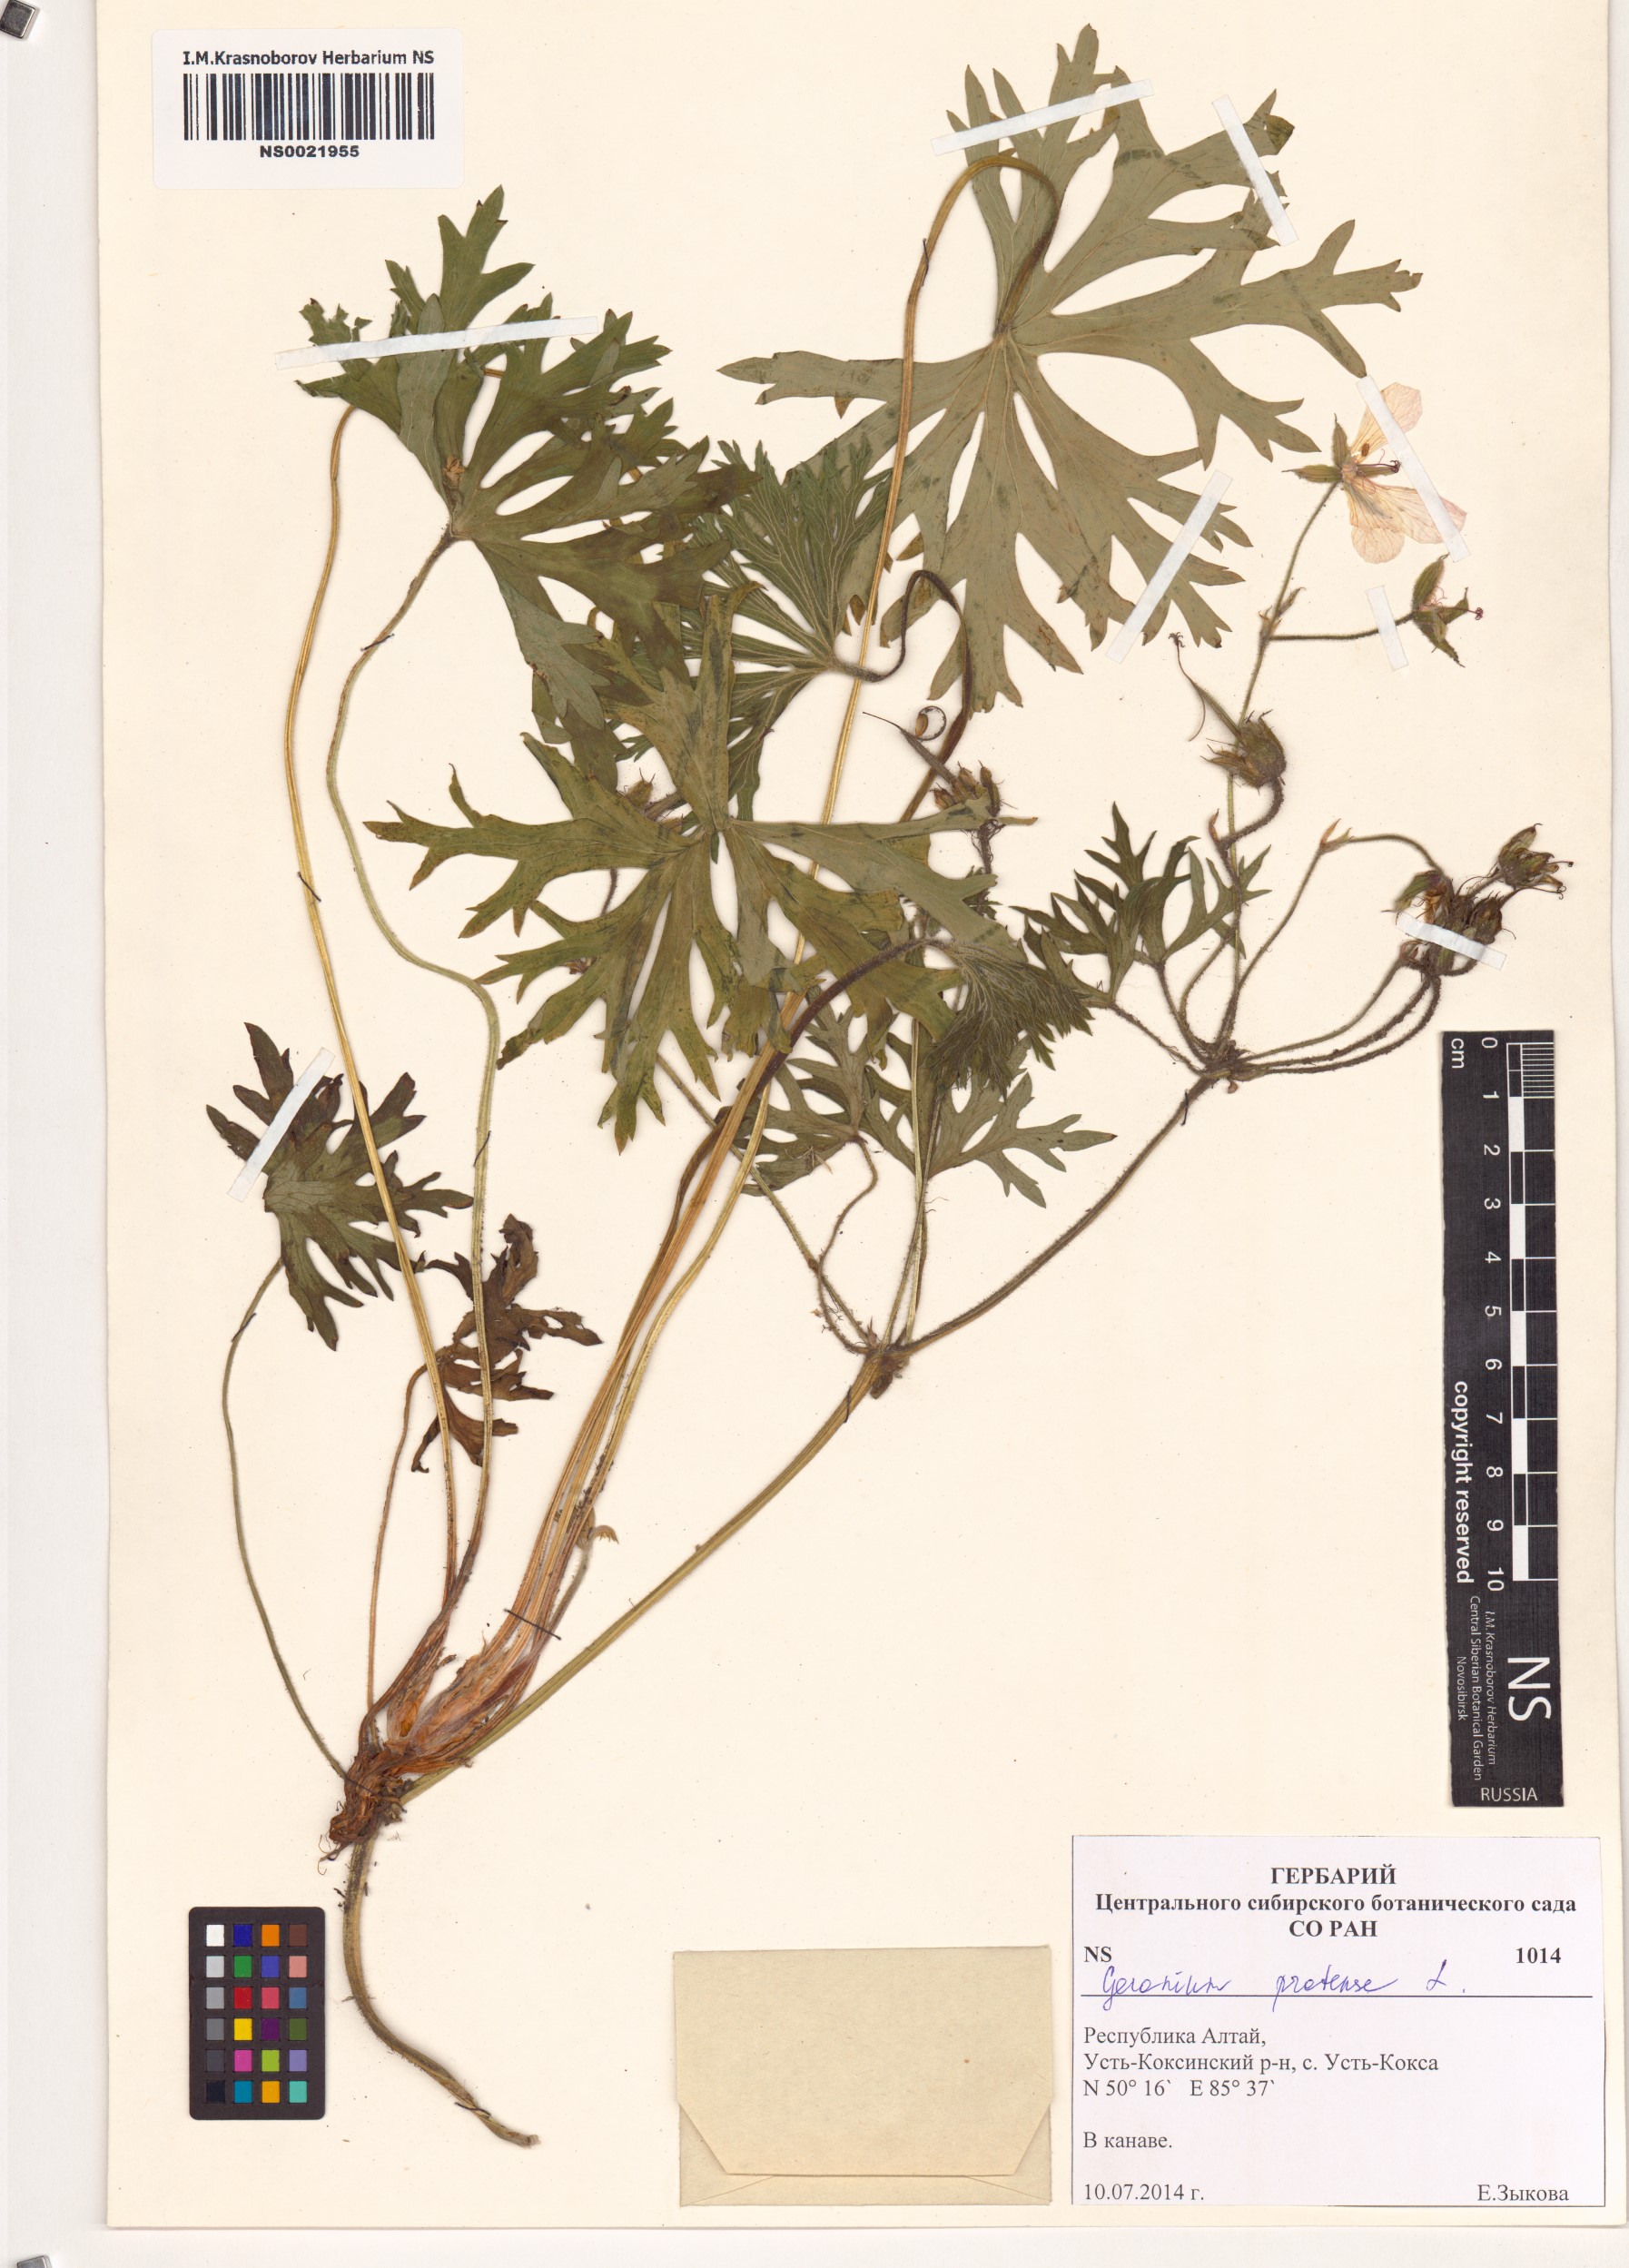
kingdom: Plantae
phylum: Tracheophyta
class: Magnoliopsida
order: Geraniales
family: Geraniaceae
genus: Geranium
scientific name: Geranium pratense
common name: Meadow crane's-bill
